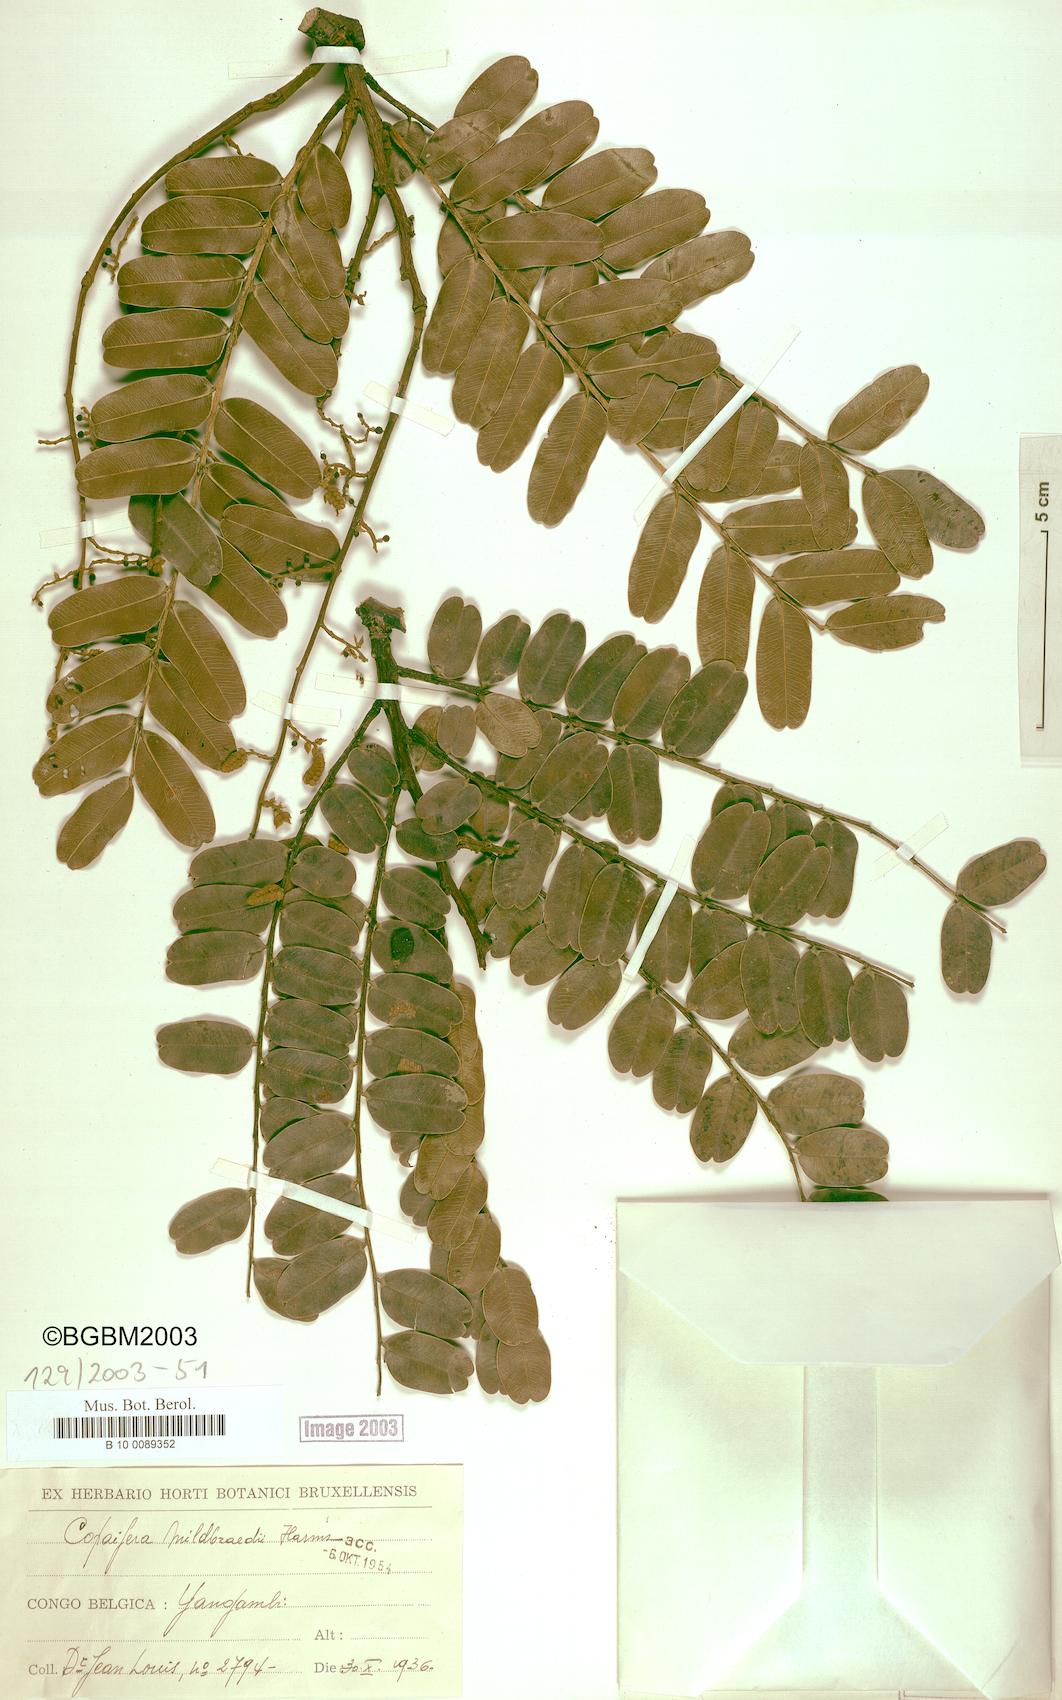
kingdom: Plantae
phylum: Tracheophyta
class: Magnoliopsida
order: Fabales
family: Fabaceae
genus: Copaifera
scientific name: Copaifera mildbraedii
